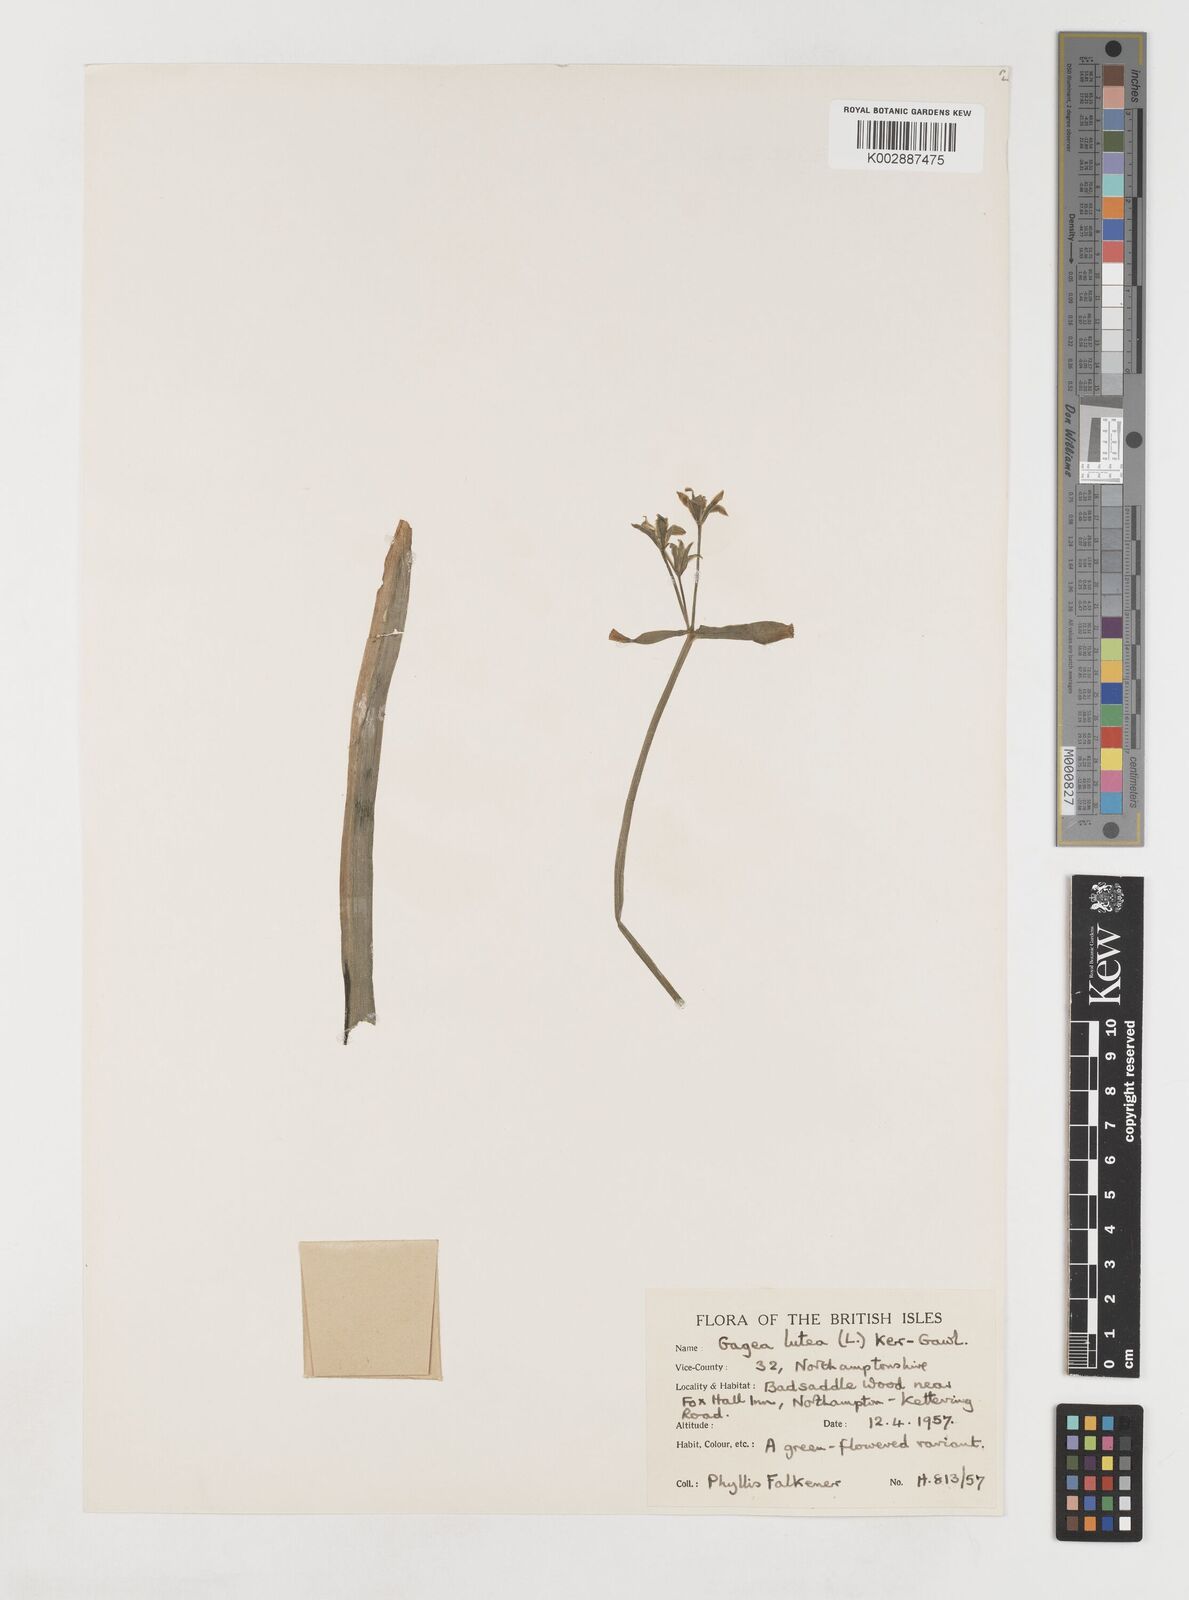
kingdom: Plantae
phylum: Tracheophyta
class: Liliopsida
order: Liliales
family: Liliaceae
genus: Gagea
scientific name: Gagea lutea
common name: Yellow star-of-bethlehem
